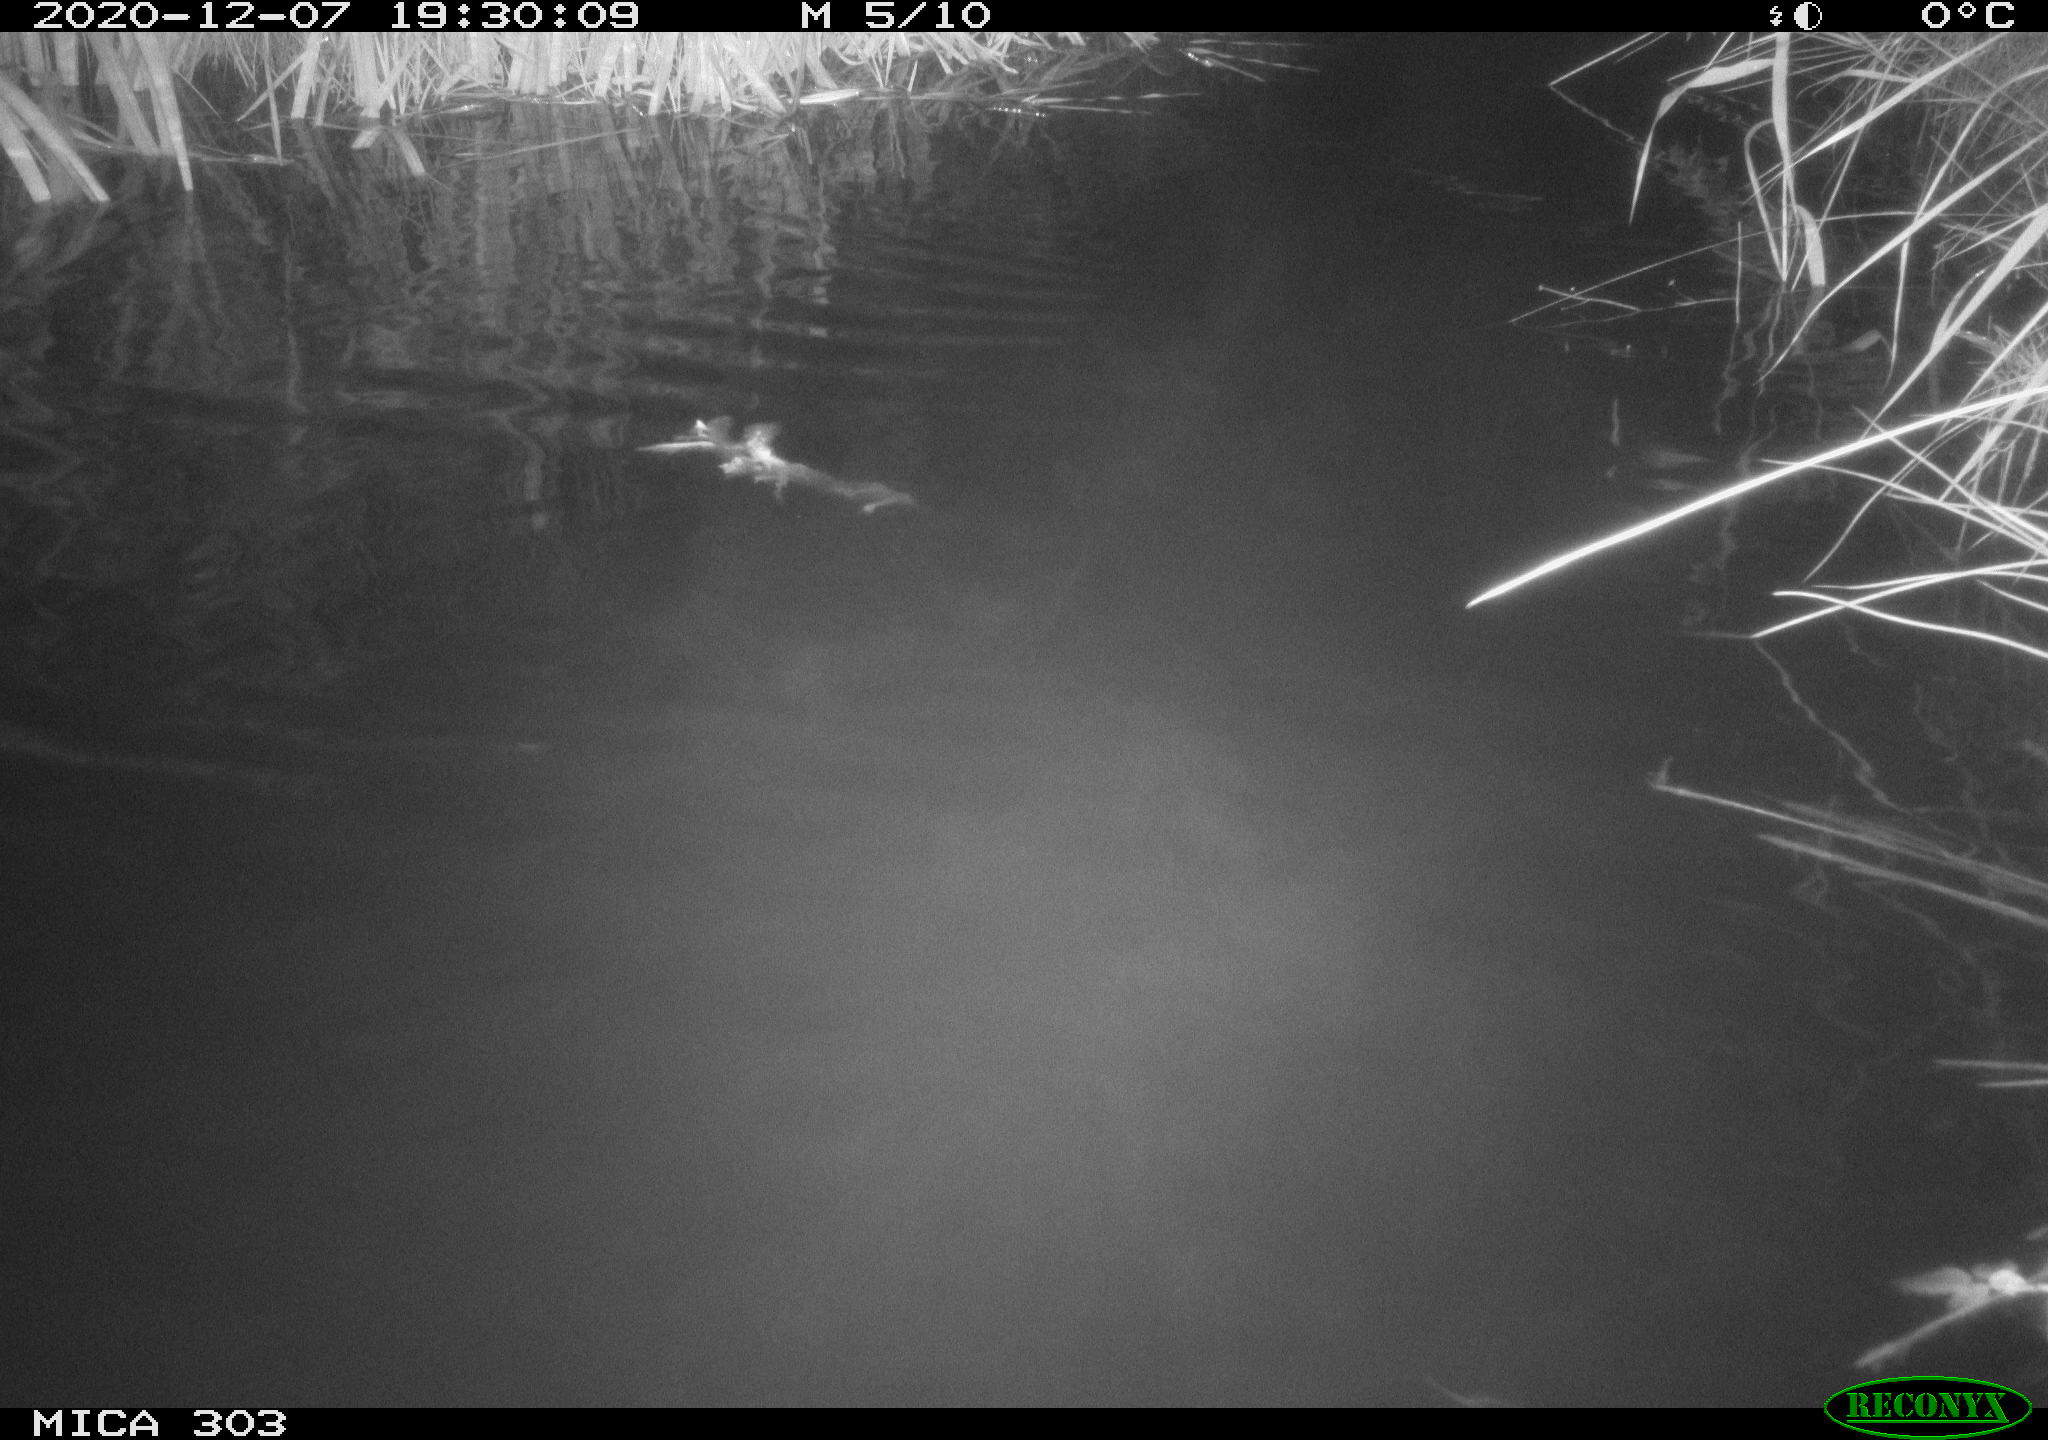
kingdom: Animalia
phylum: Chordata
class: Mammalia
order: Rodentia
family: Muridae
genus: Rattus
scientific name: Rattus norvegicus
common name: Brown rat
